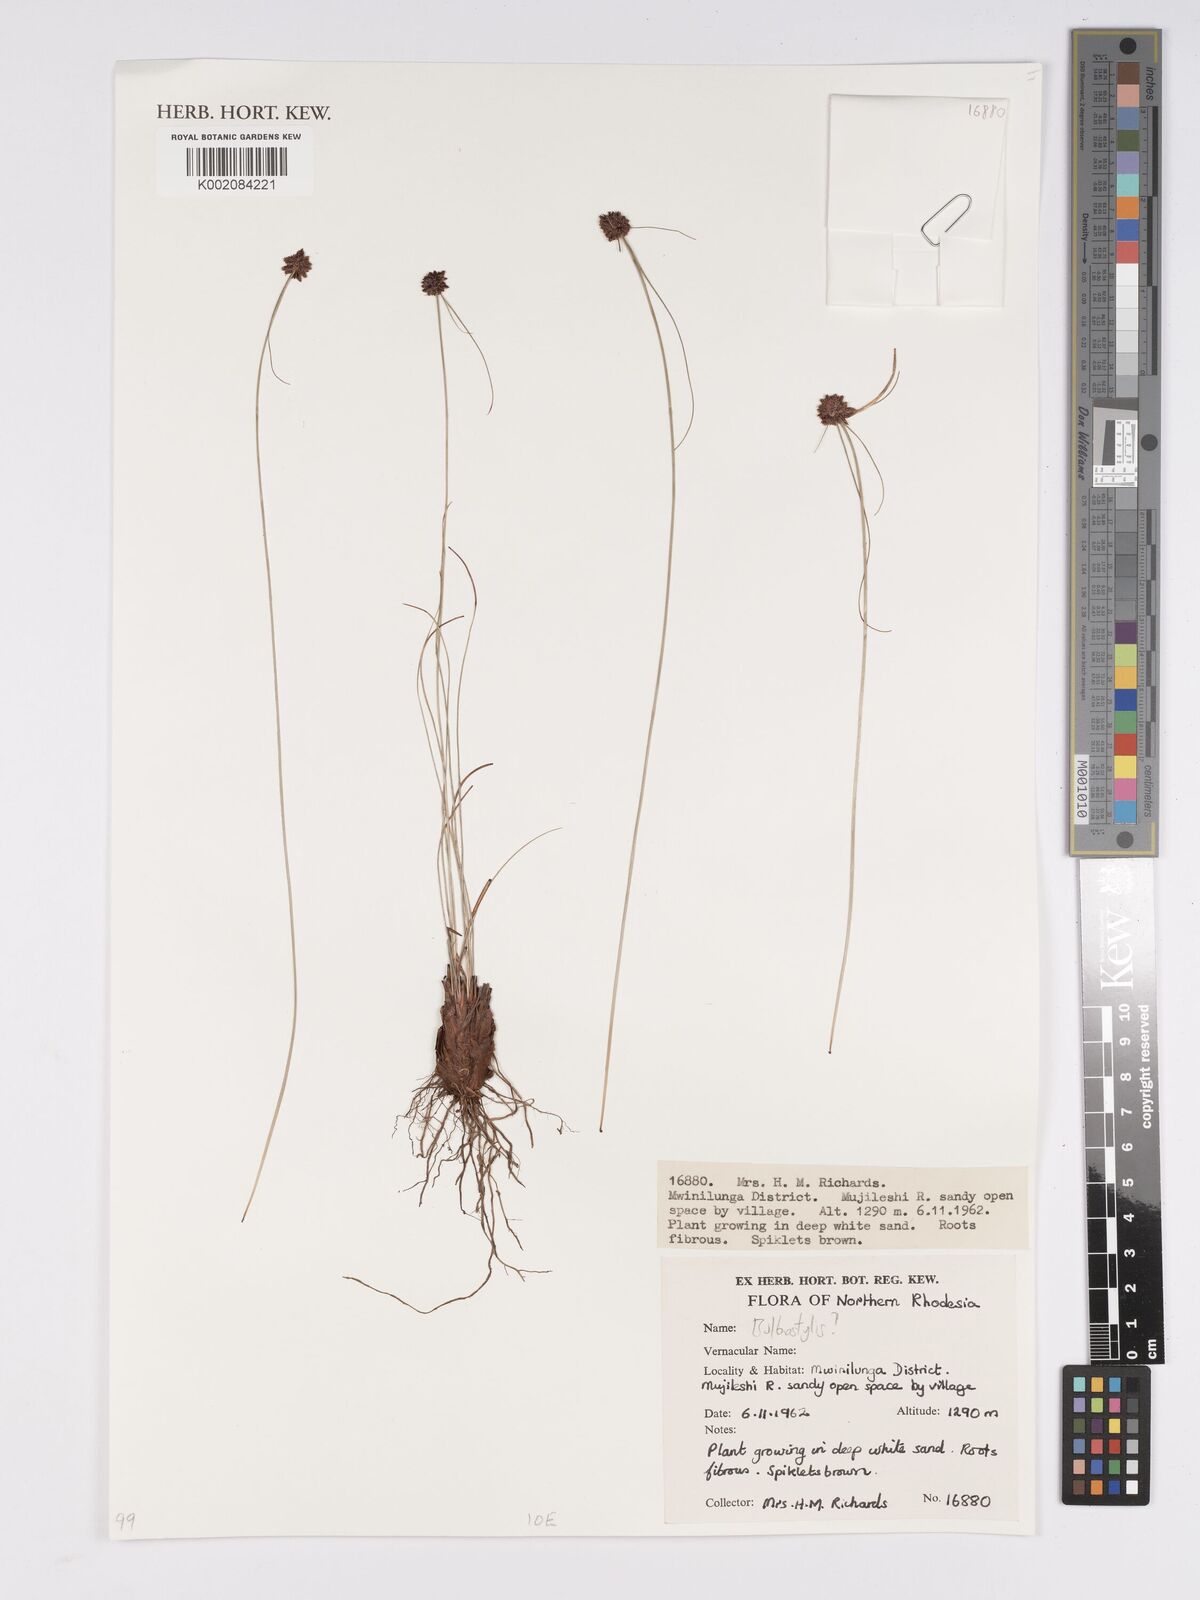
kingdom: Plantae
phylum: Tracheophyta
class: Liliopsida
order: Poales
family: Cyperaceae
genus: Bulbostylis
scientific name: Bulbostylis
